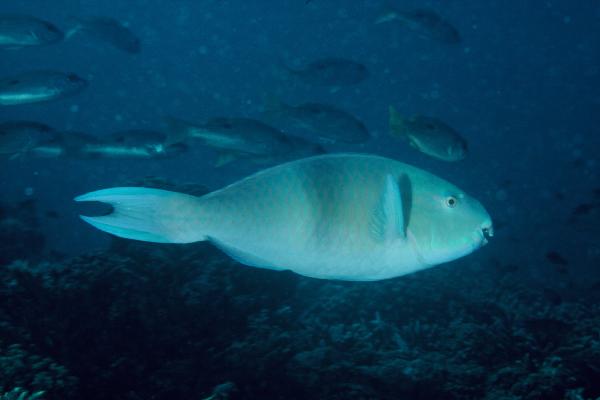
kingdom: Animalia
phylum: Chordata
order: Perciformes
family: Scaridae
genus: Scarus
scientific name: Scarus ghobban
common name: Blue-barred parrotfish
